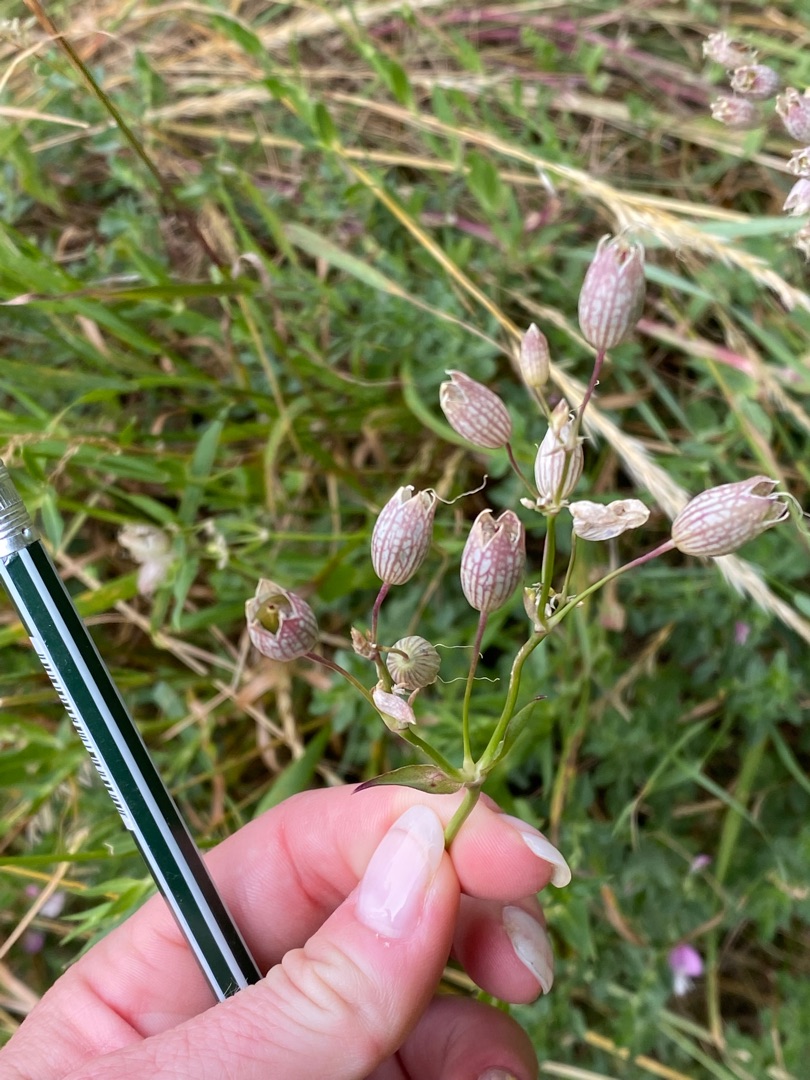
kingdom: Plantae
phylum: Tracheophyta
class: Magnoliopsida
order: Caryophyllales
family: Caryophyllaceae
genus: Silene
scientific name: Silene vulgaris
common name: Blæresmælde
